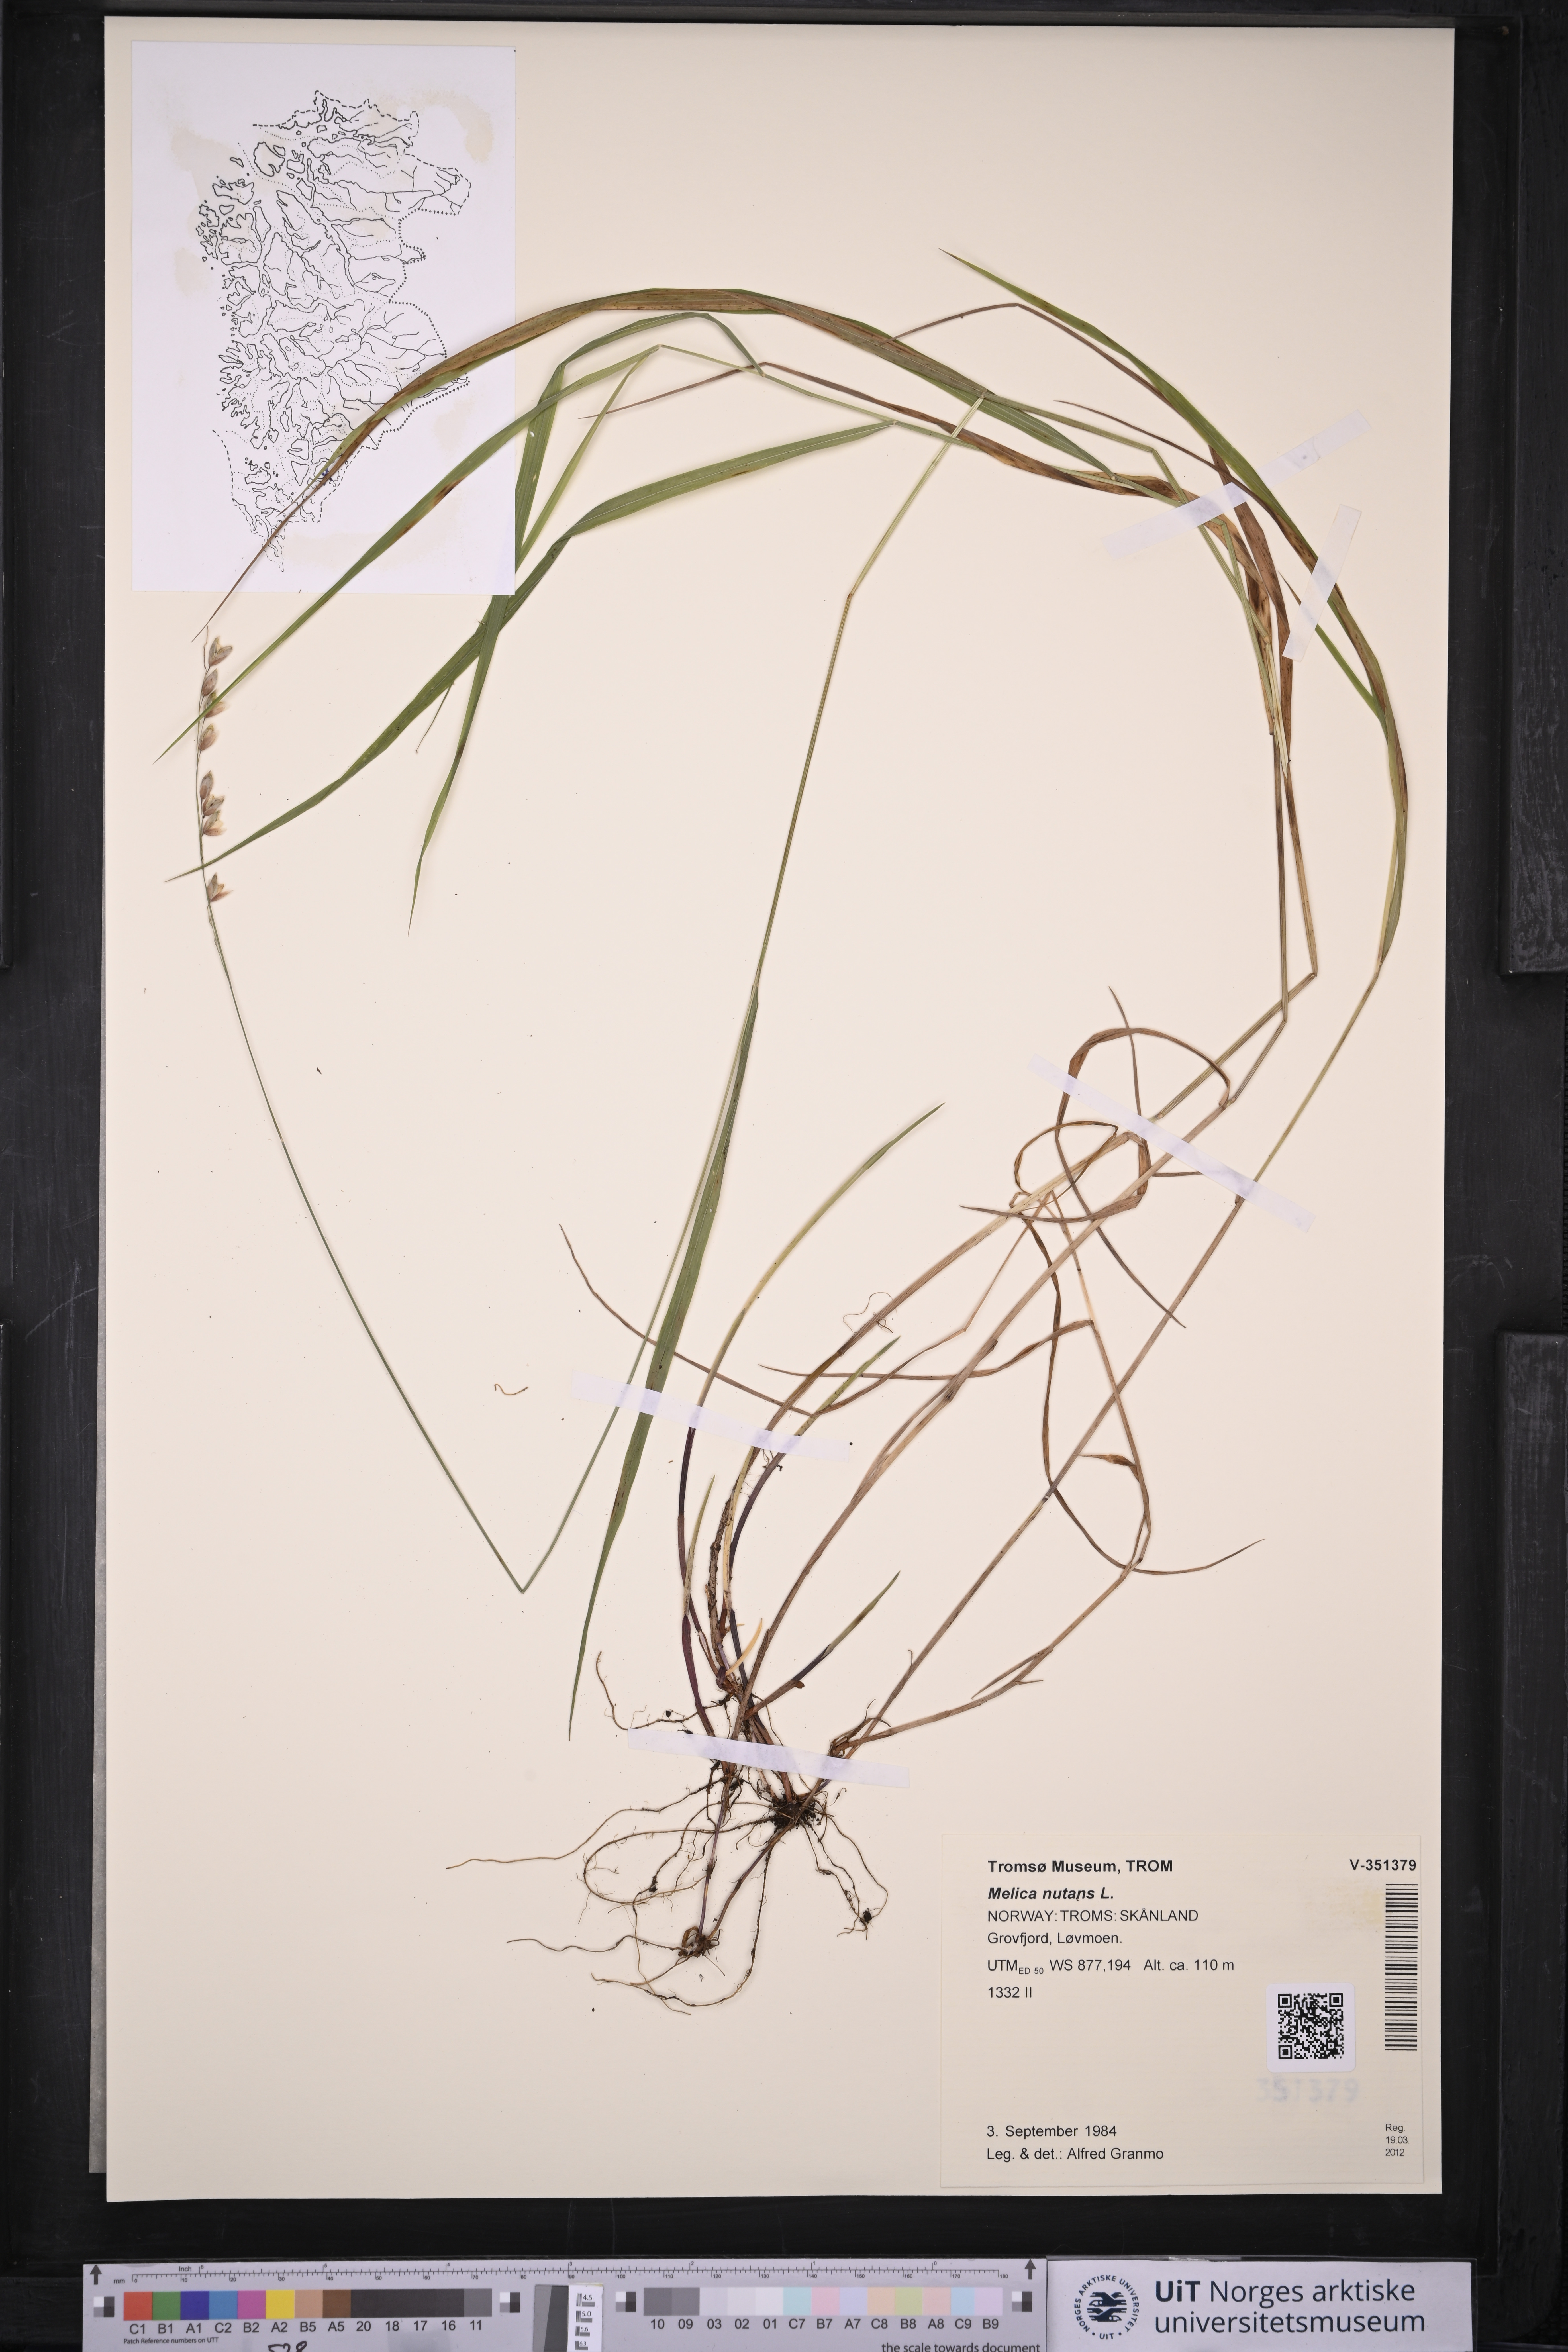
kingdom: Plantae
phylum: Tracheophyta
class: Liliopsida
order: Poales
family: Poaceae
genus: Melica
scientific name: Melica nutans
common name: Mountain melick
